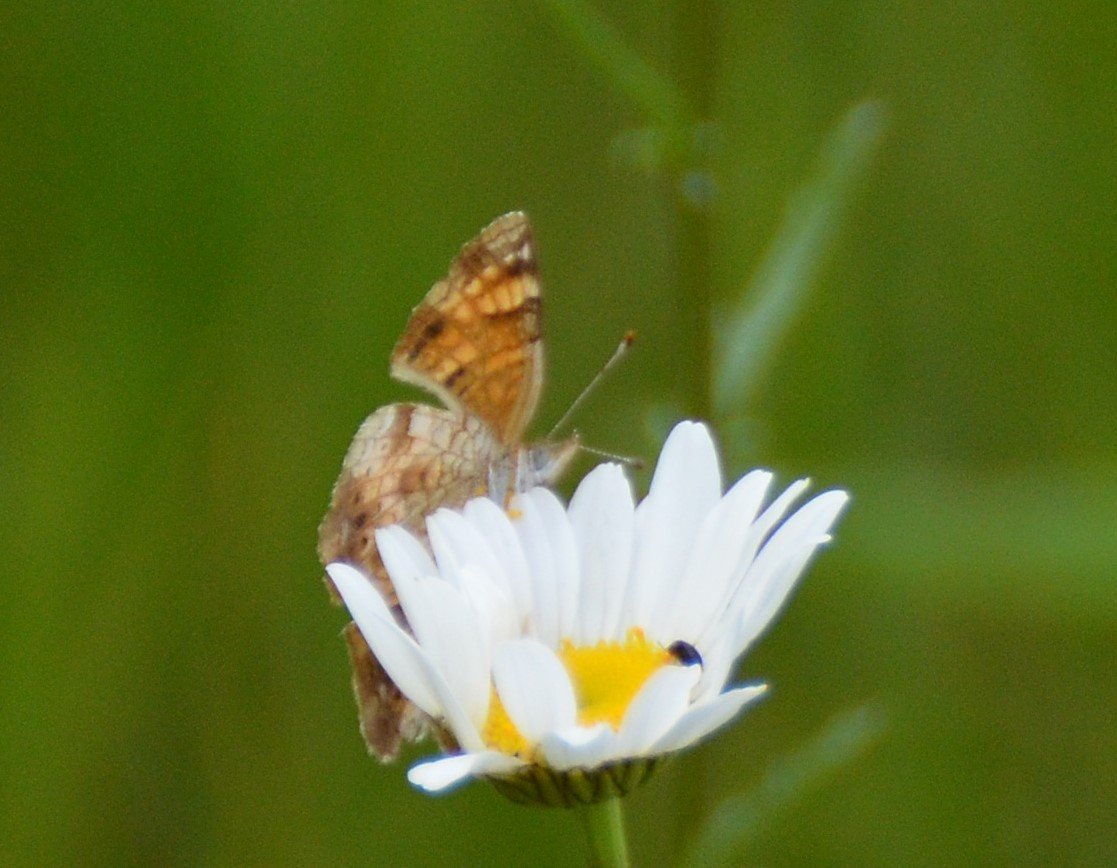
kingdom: Animalia
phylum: Arthropoda
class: Insecta
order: Lepidoptera
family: Nymphalidae
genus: Phyciodes
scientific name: Phyciodes tharos
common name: Northern Crescent
